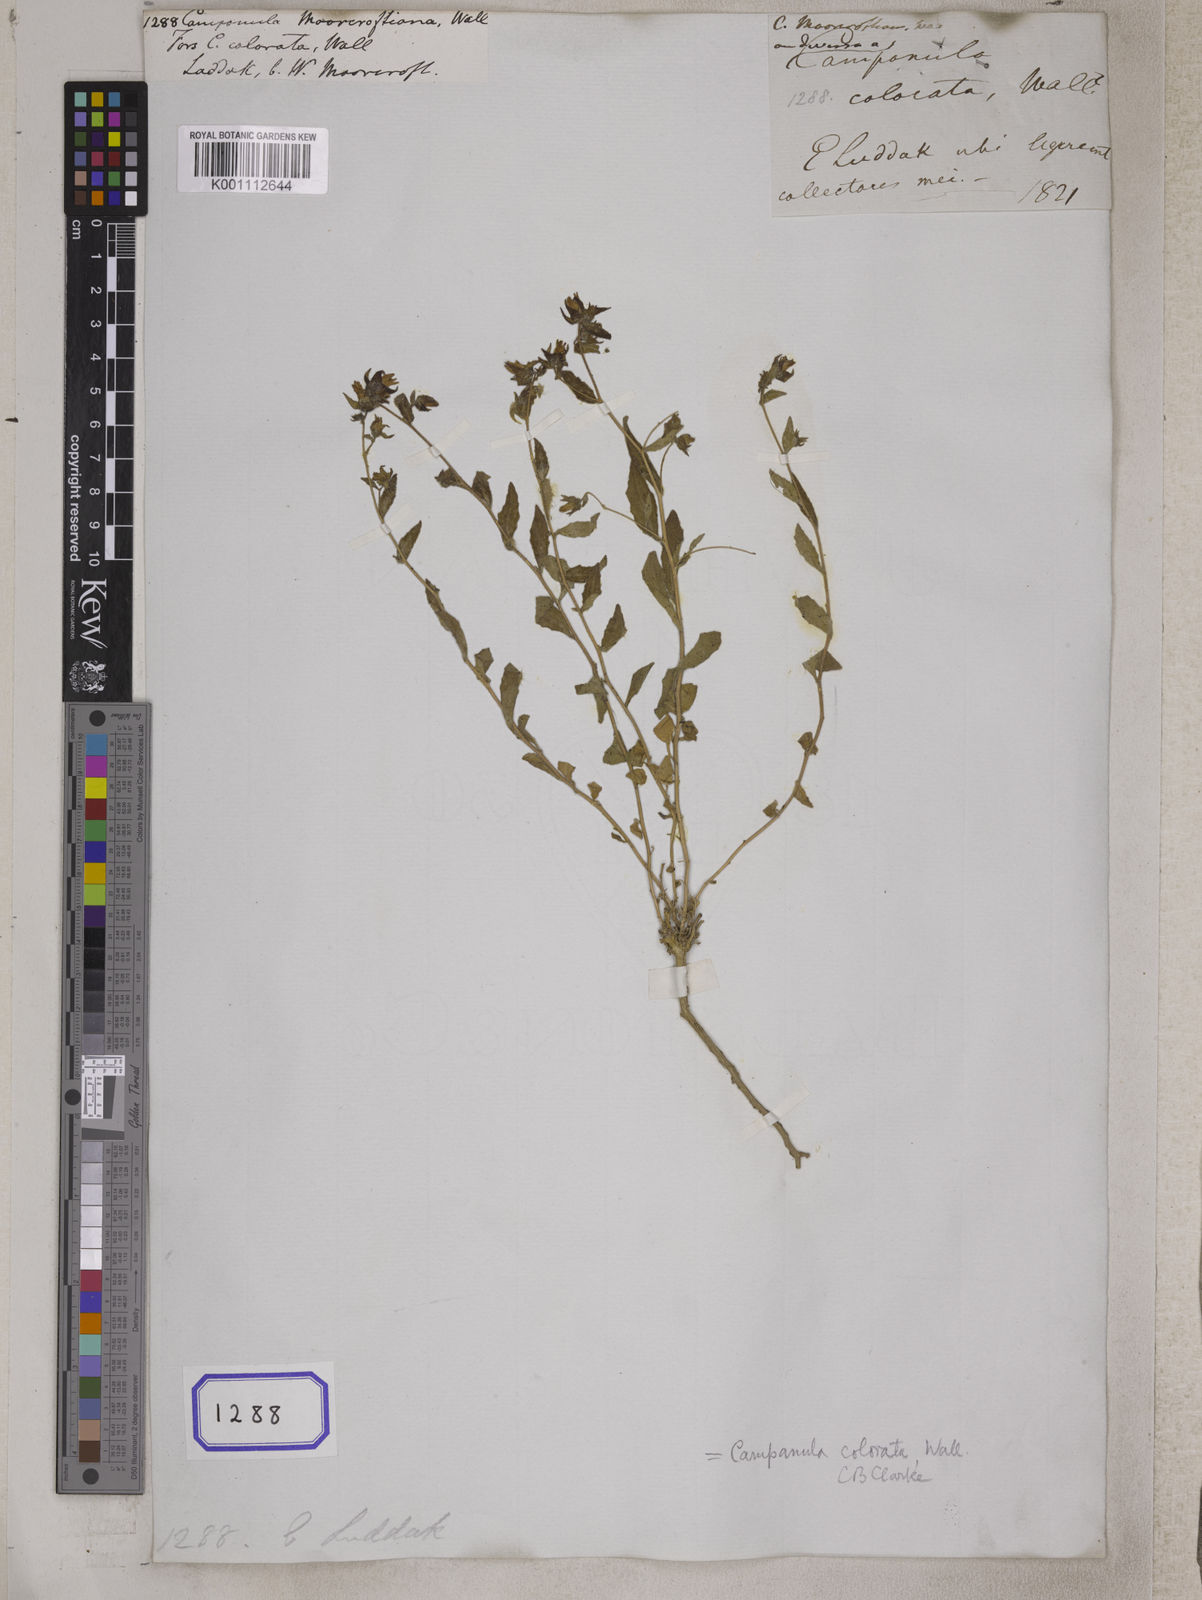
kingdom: Plantae
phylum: Tracheophyta
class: Magnoliopsida
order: Asterales
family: Campanulaceae
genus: Campanula
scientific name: Campanula pallida
